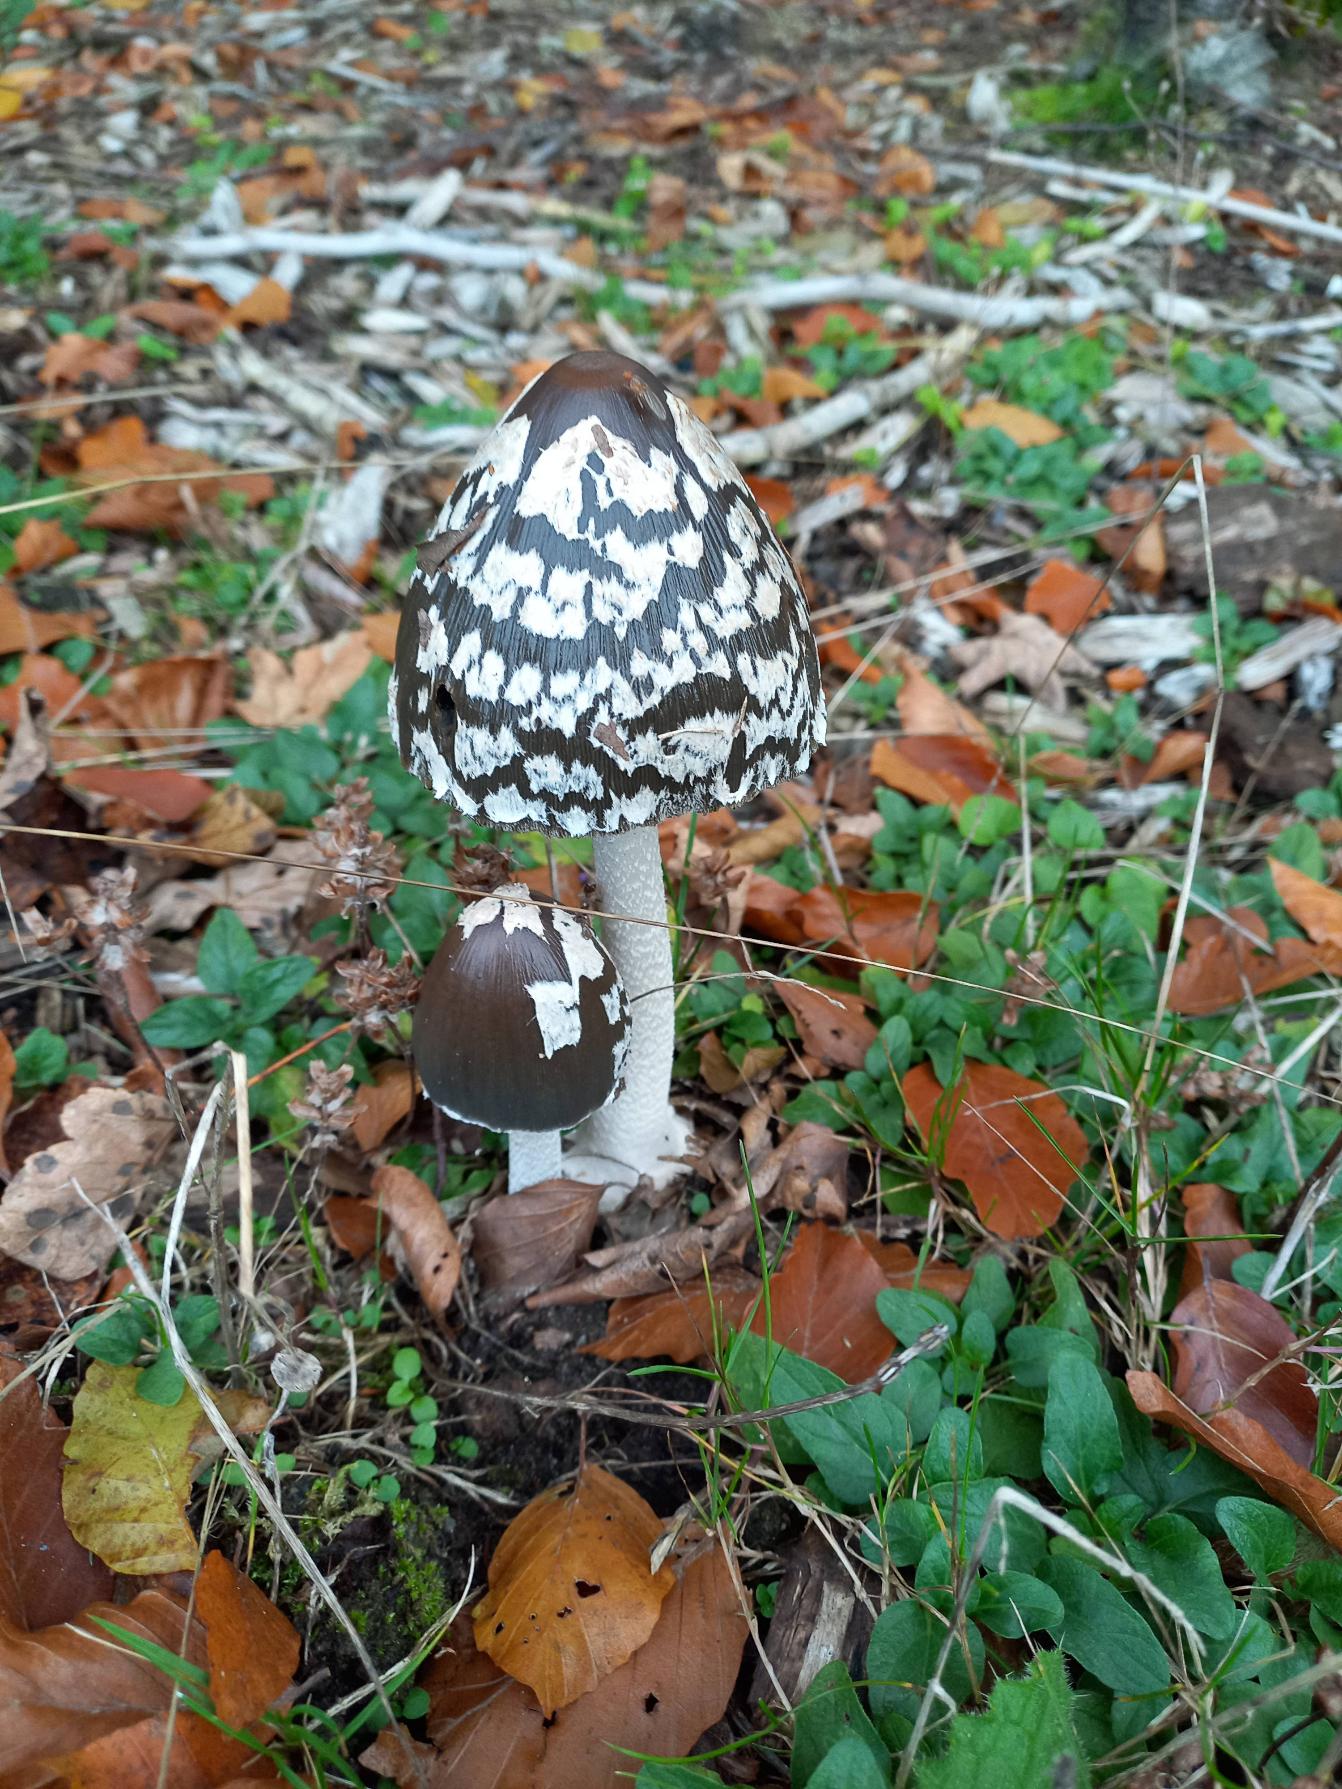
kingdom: Fungi
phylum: Basidiomycota
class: Agaricomycetes
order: Agaricales
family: Psathyrellaceae
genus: Coprinopsis
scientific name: Coprinopsis picacea
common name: Skade-blækhat
